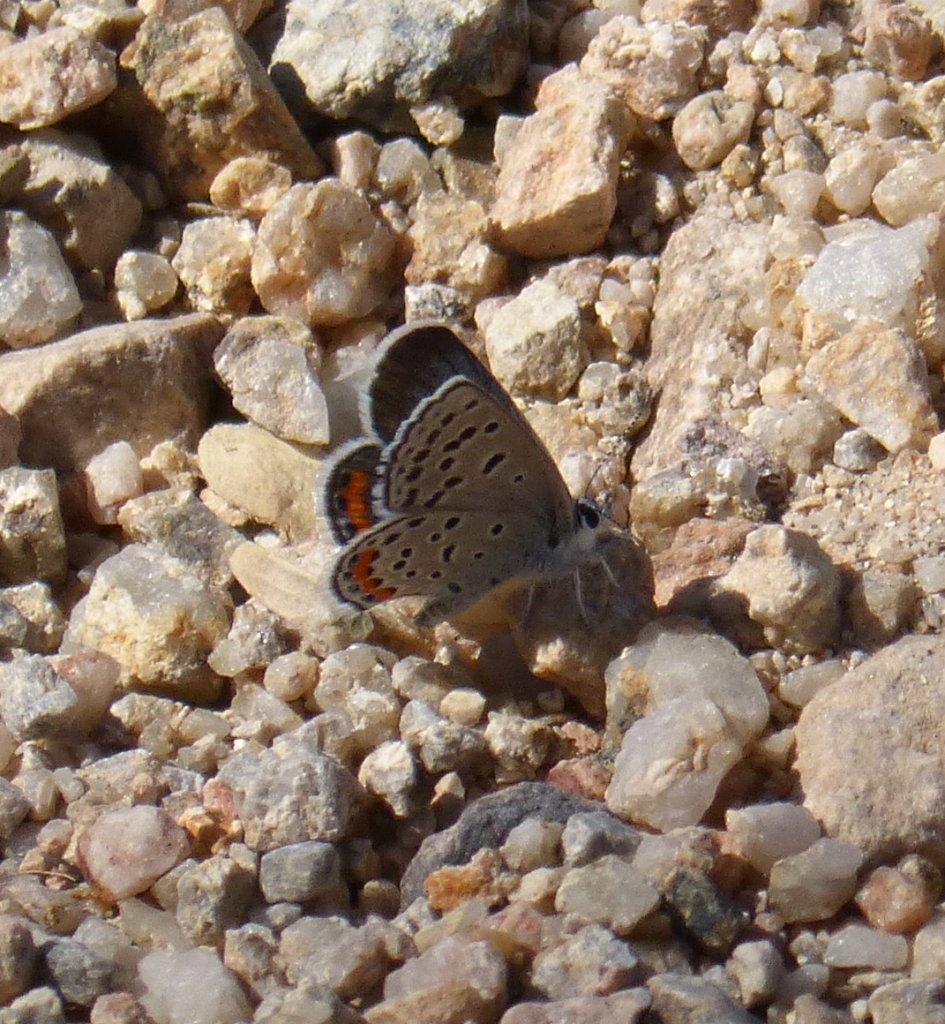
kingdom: Animalia
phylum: Arthropoda
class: Insecta
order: Lepidoptera
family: Lycaenidae
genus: Plebejus
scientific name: Plebejus acmon
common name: Acmon Blue
